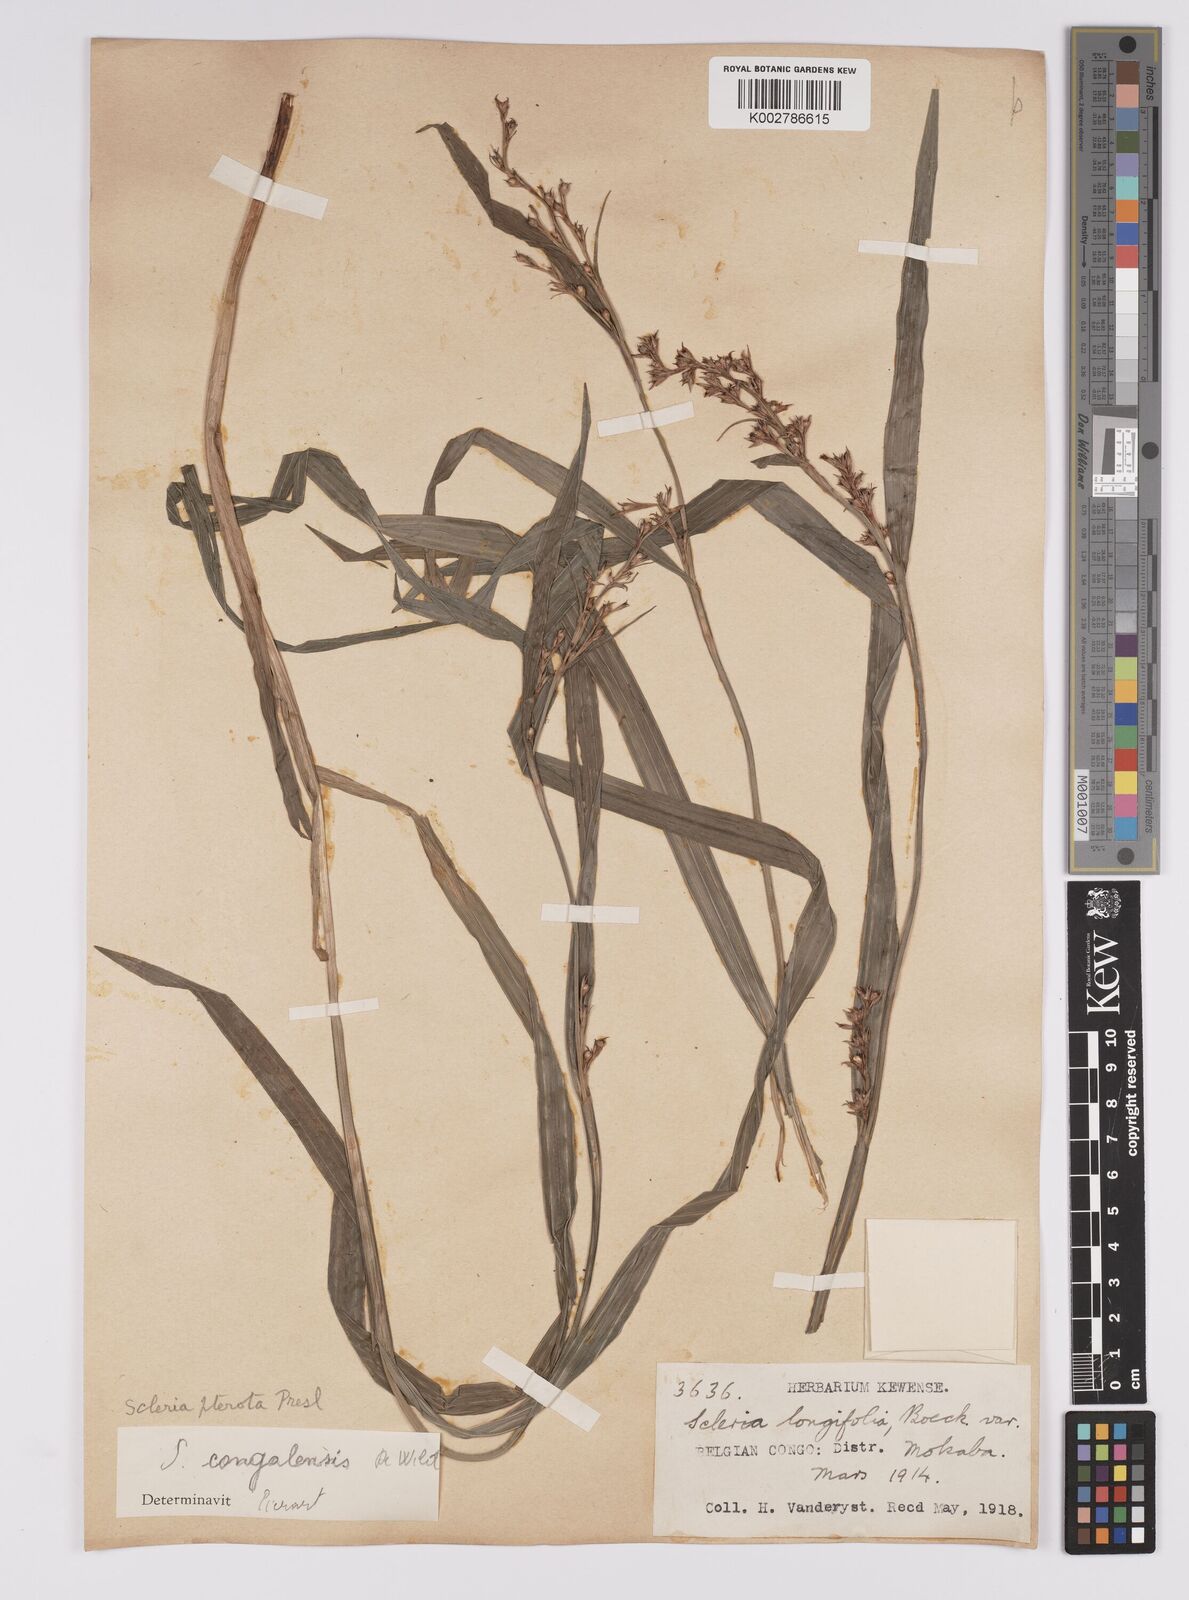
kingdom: Plantae
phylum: Tracheophyta
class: Liliopsida
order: Poales
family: Cyperaceae
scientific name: Cyperaceae
